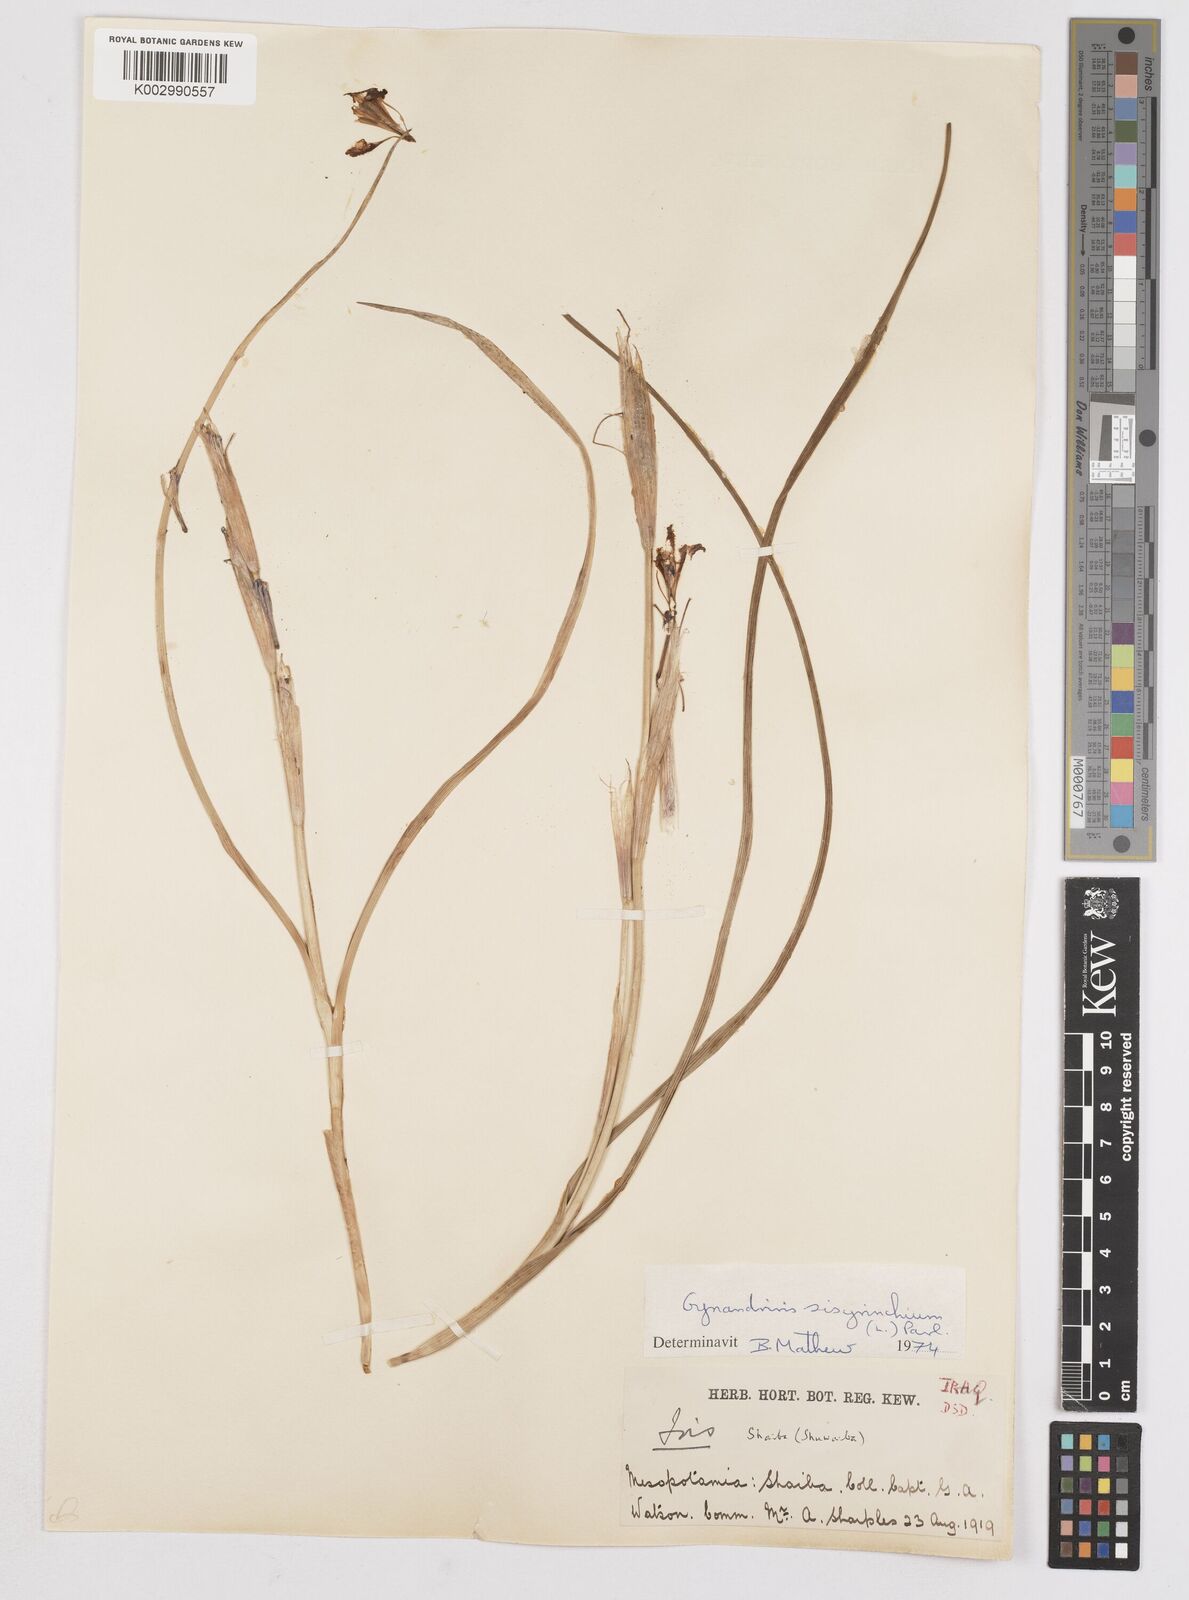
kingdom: Plantae
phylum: Tracheophyta
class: Liliopsida
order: Asparagales
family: Iridaceae
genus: Moraea
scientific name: Moraea sisyrinchium
